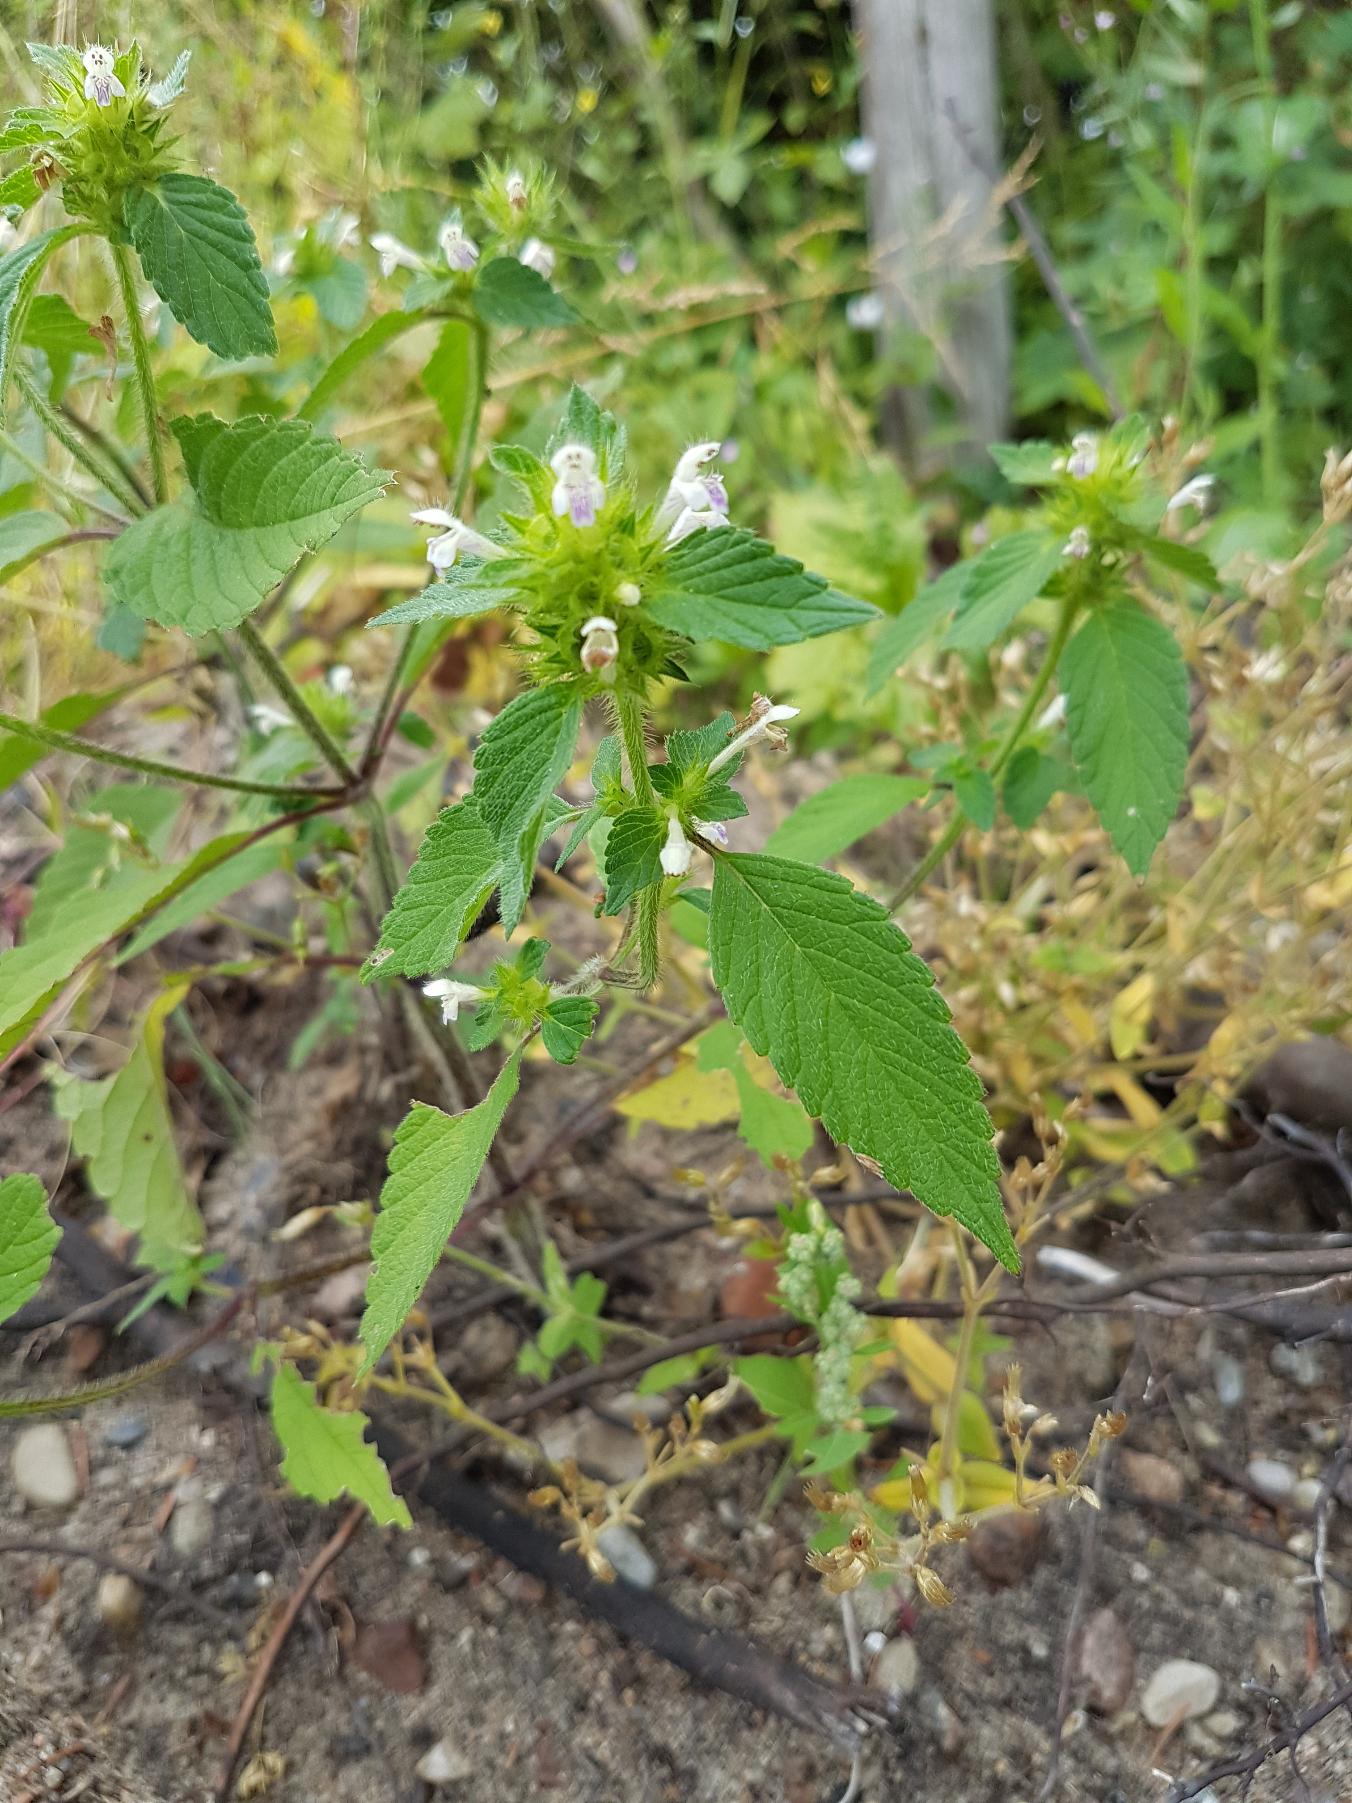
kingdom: Plantae
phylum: Tracheophyta
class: Magnoliopsida
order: Lamiales
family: Lamiaceae
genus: Galeopsis
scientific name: Galeopsis bifida
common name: Skov-hanekro
